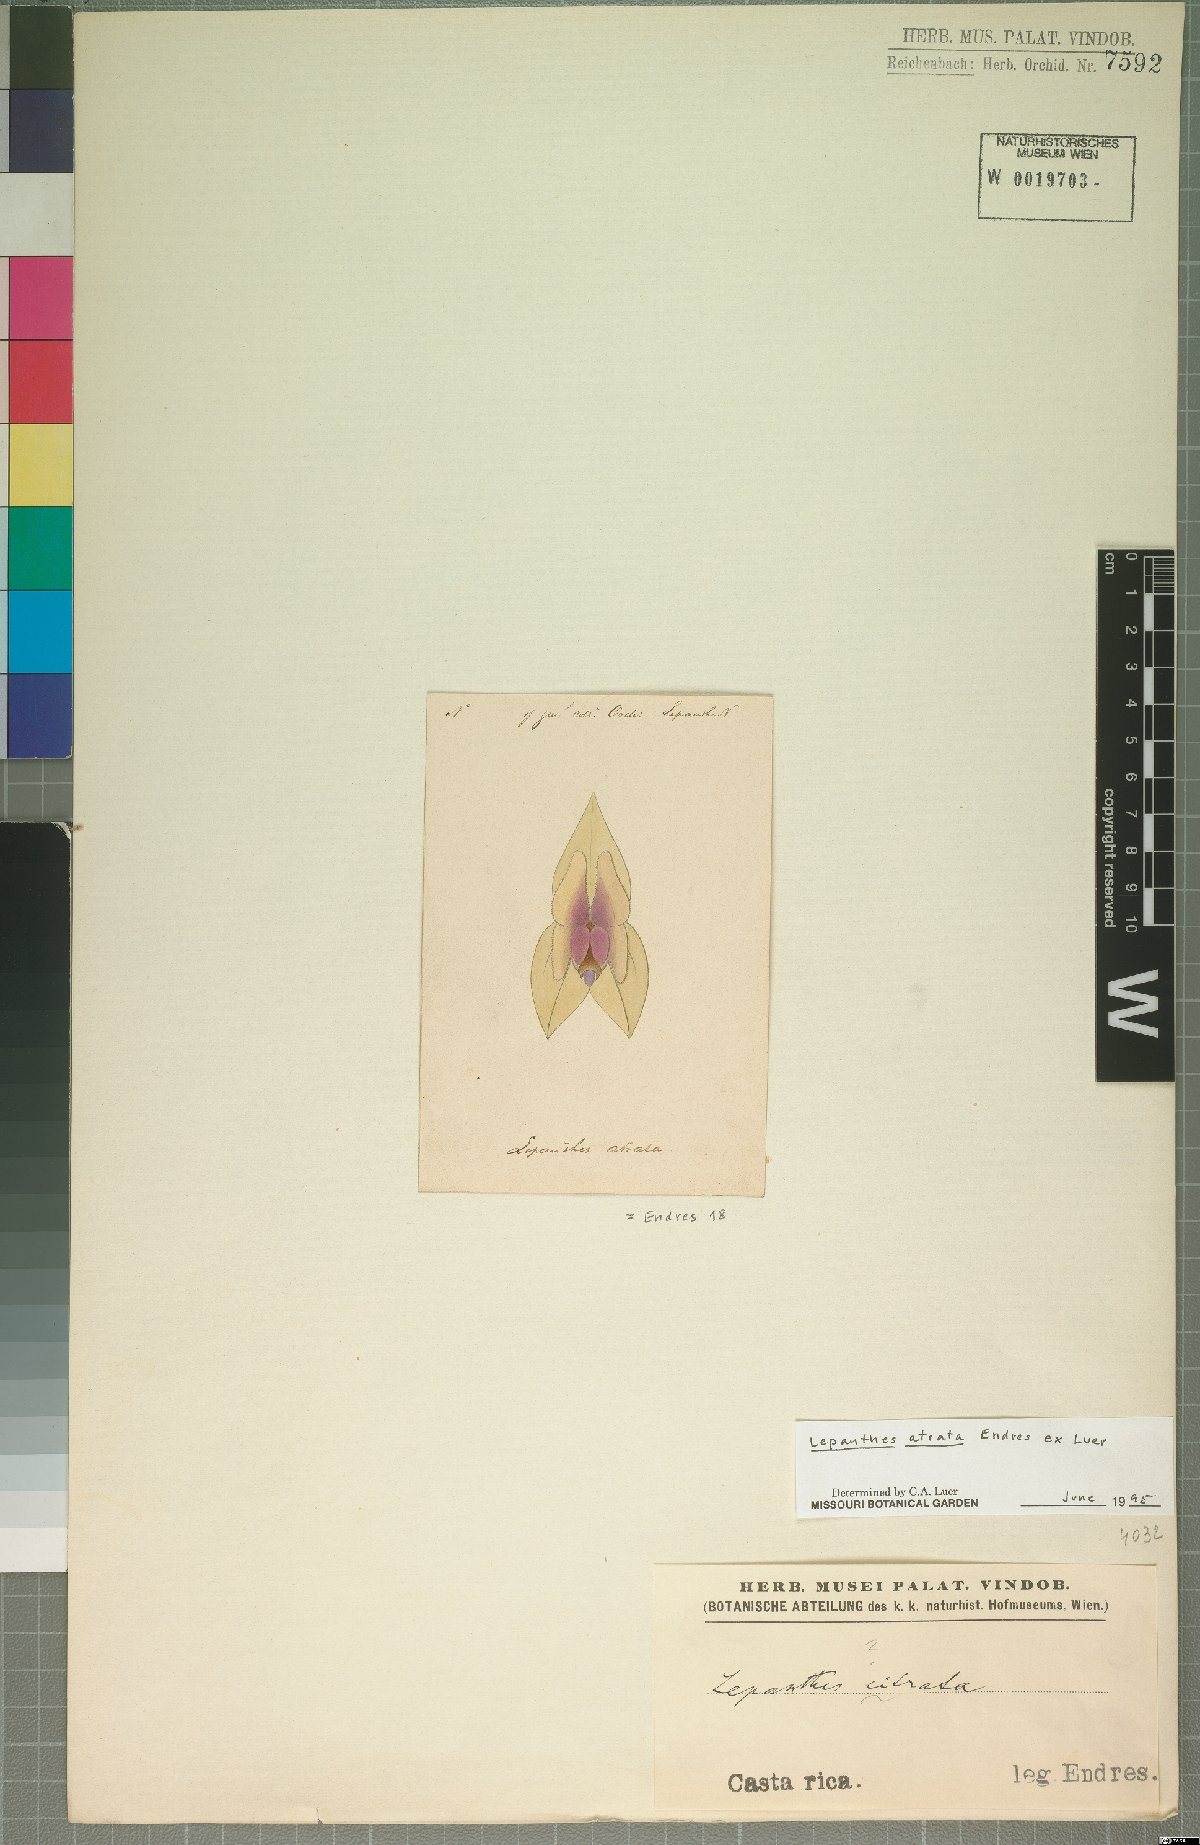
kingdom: Plantae
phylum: Tracheophyta
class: Liliopsida
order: Asparagales
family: Orchidaceae
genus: Lepanthes
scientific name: Lepanthes atrata
